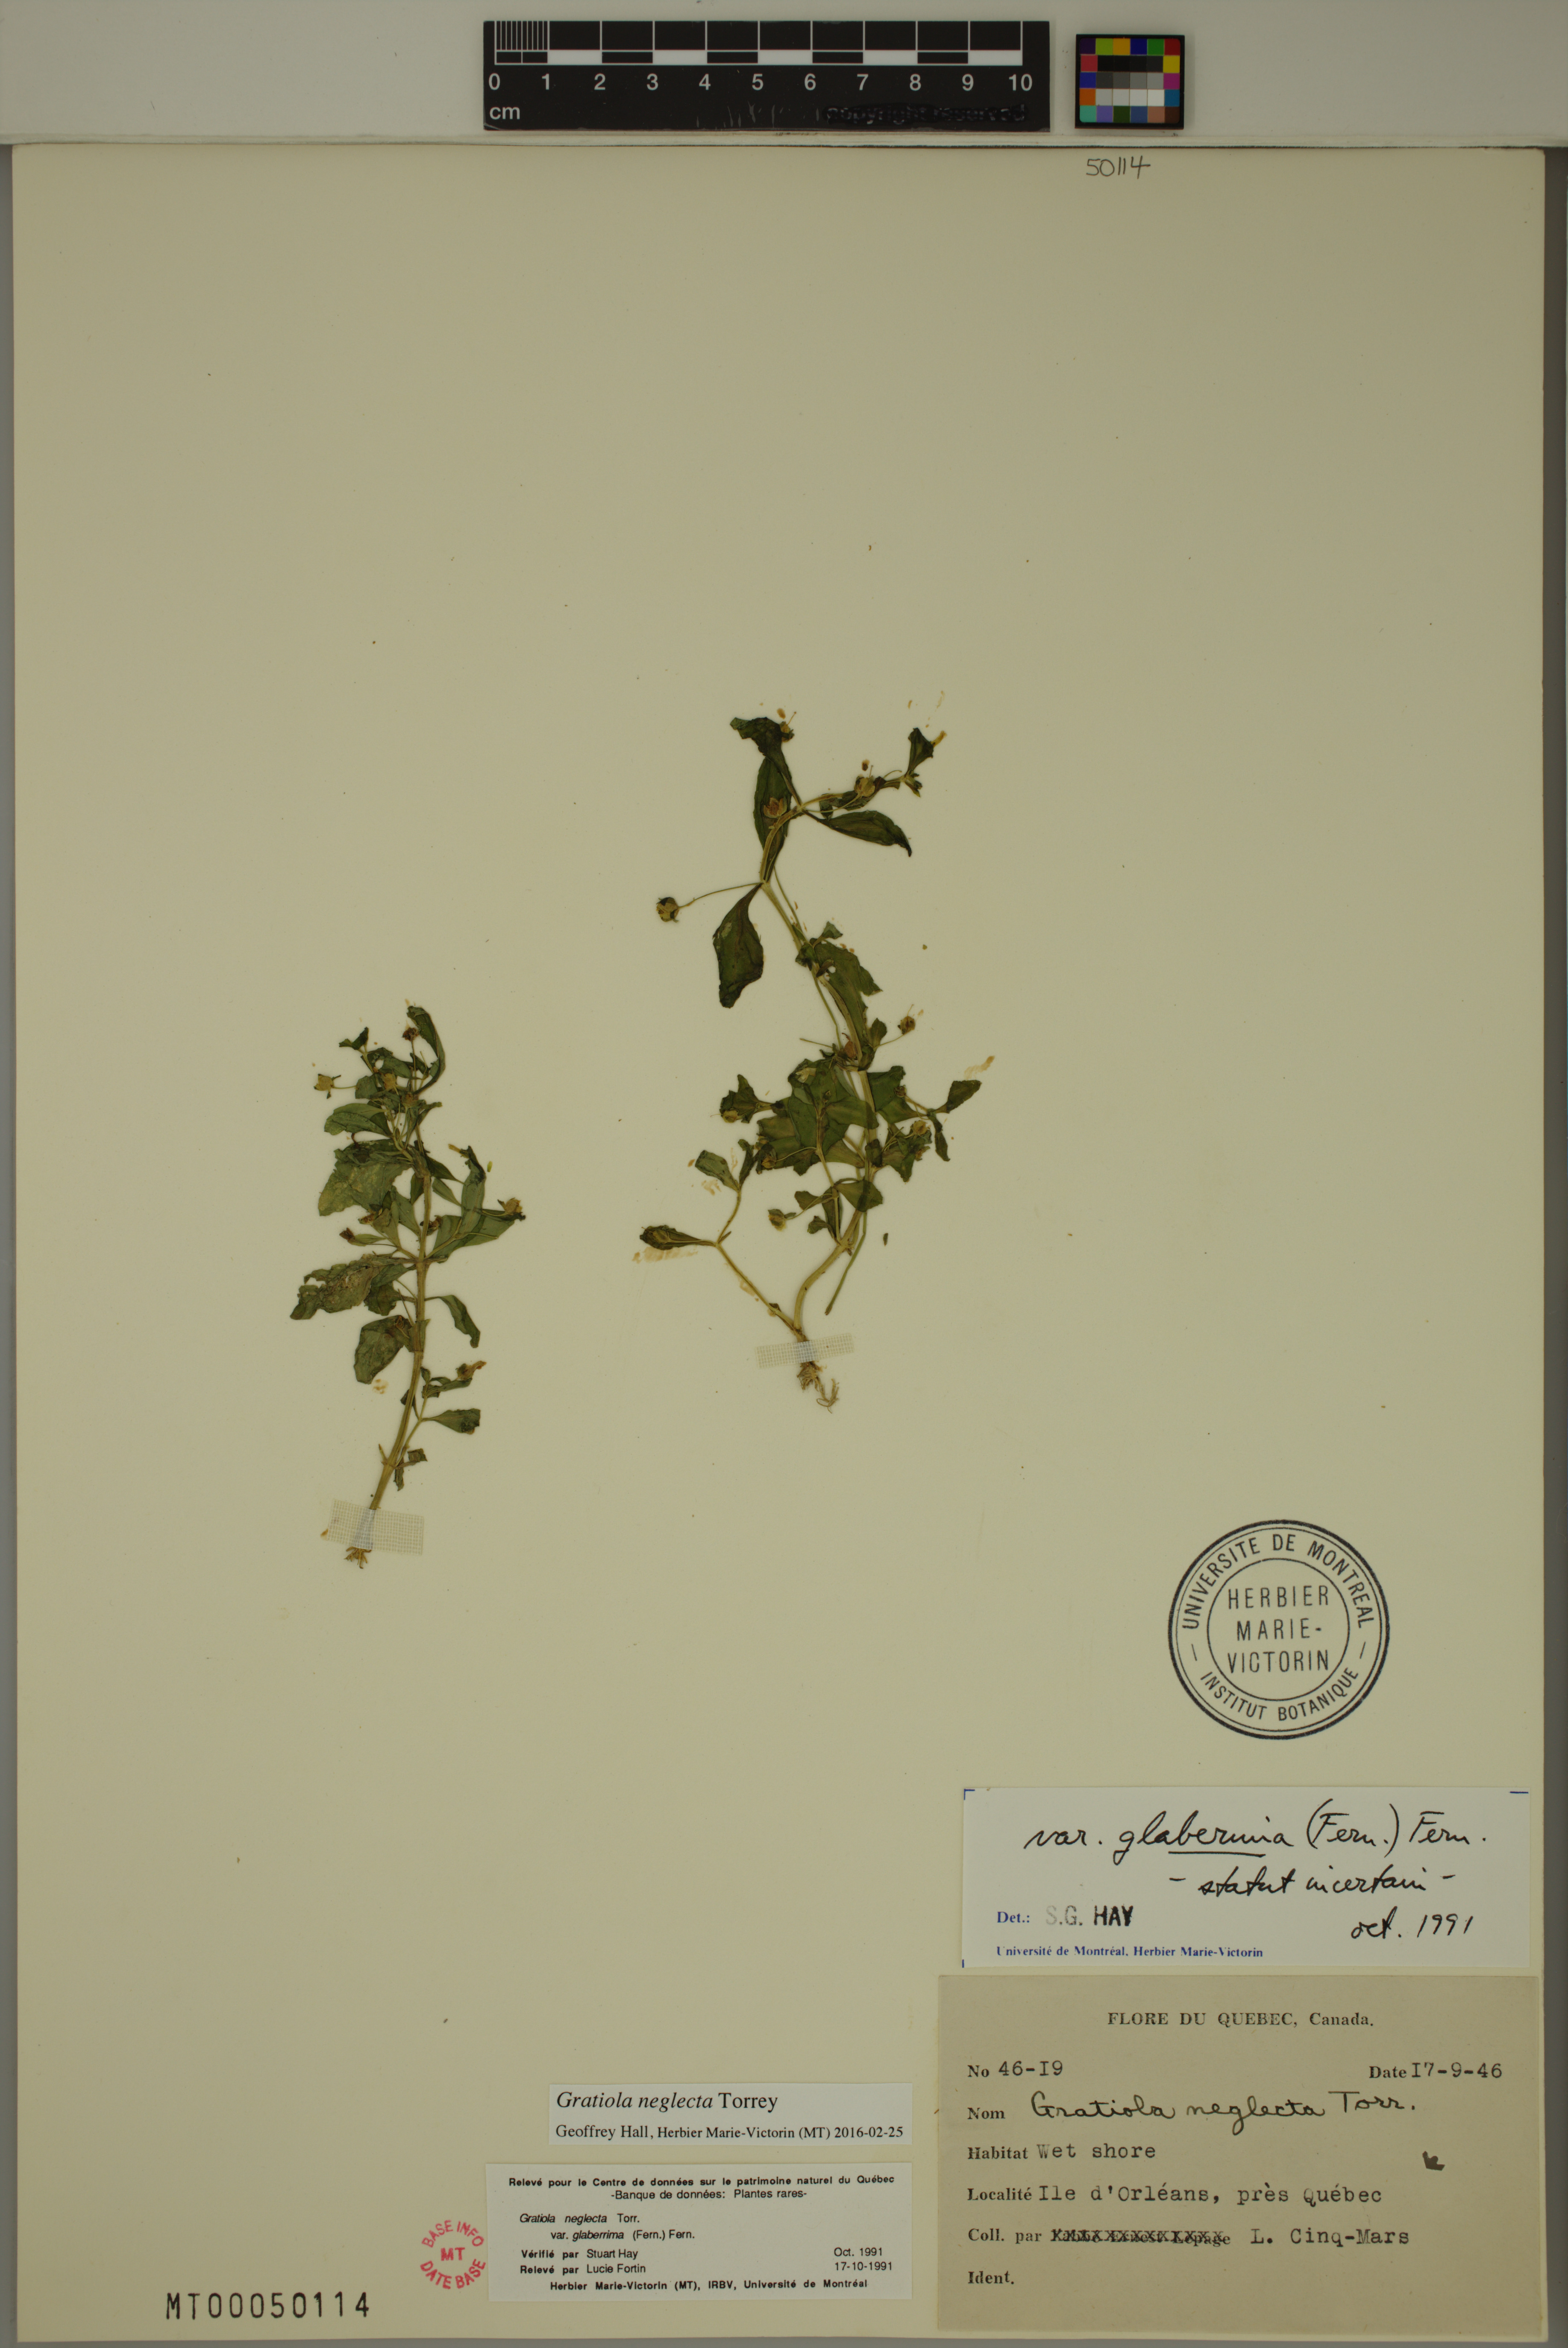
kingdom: Plantae
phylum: Tracheophyta
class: Magnoliopsida
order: Lamiales
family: Plantaginaceae
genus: Gratiola
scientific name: Gratiola neglecta
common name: American hedge-hyssop
